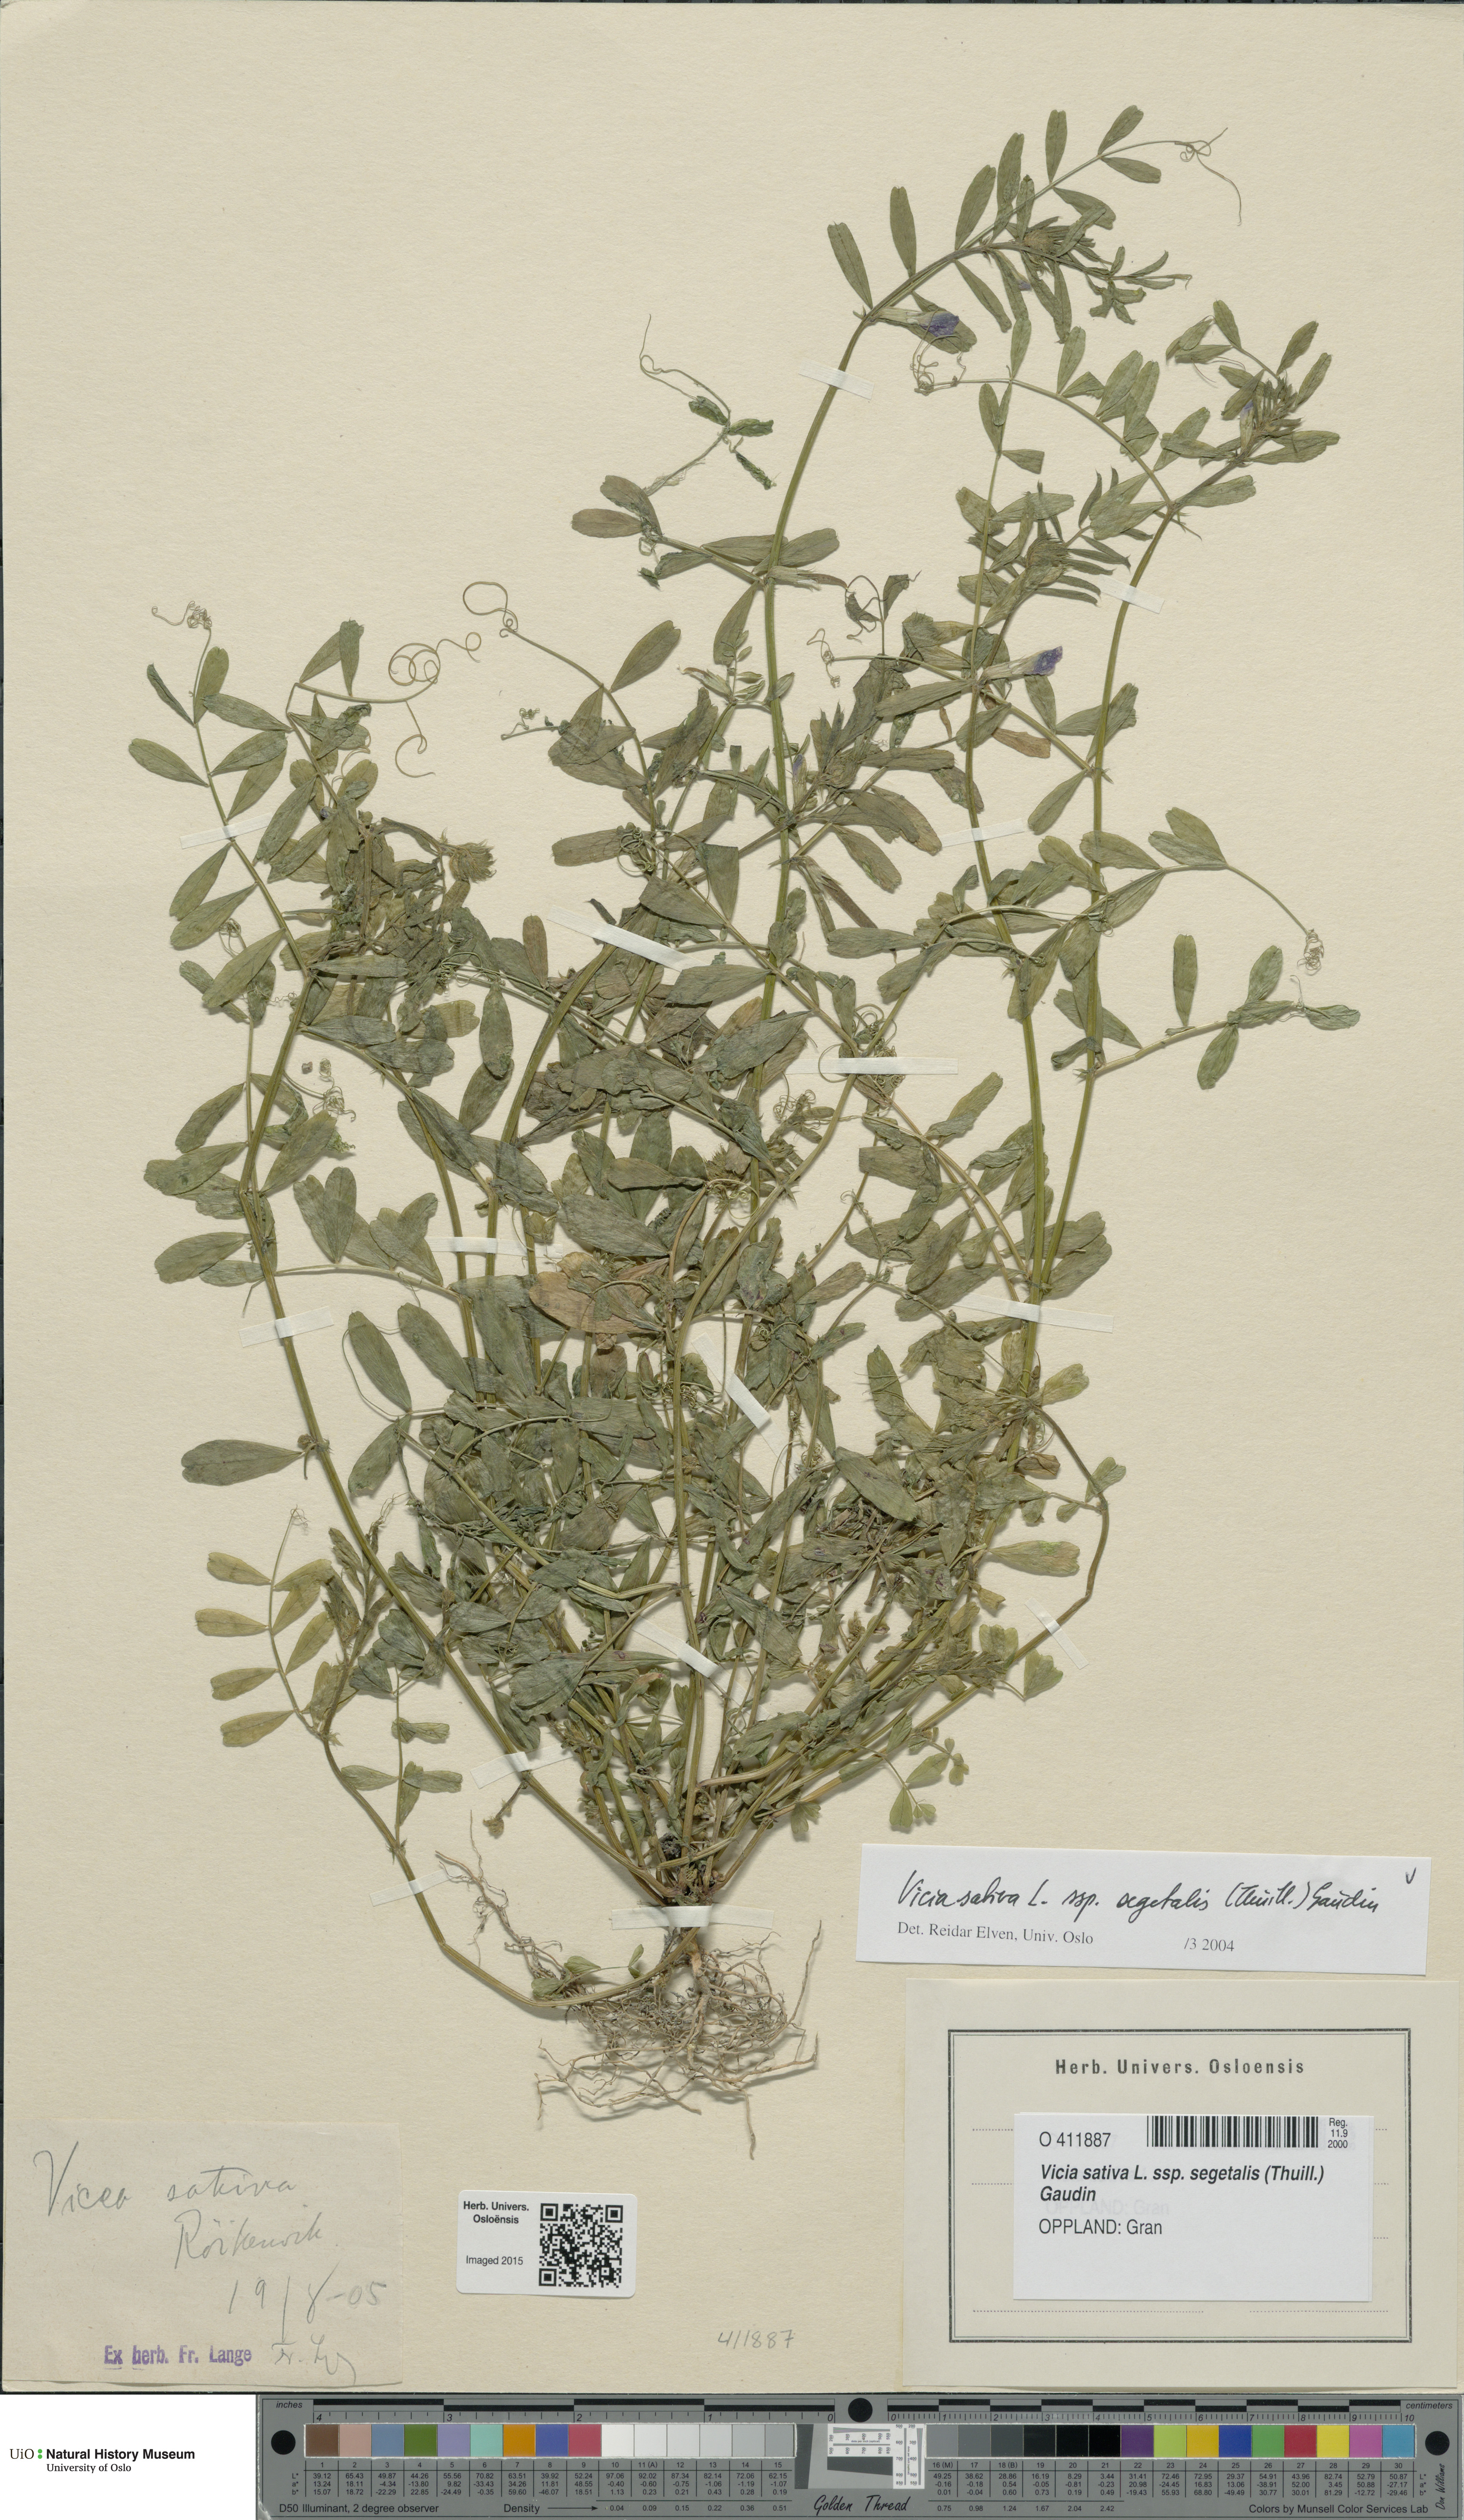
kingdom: Plantae
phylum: Tracheophyta
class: Magnoliopsida
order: Fabales
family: Fabaceae
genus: Vicia
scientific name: Vicia sativa
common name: Garden vetch
